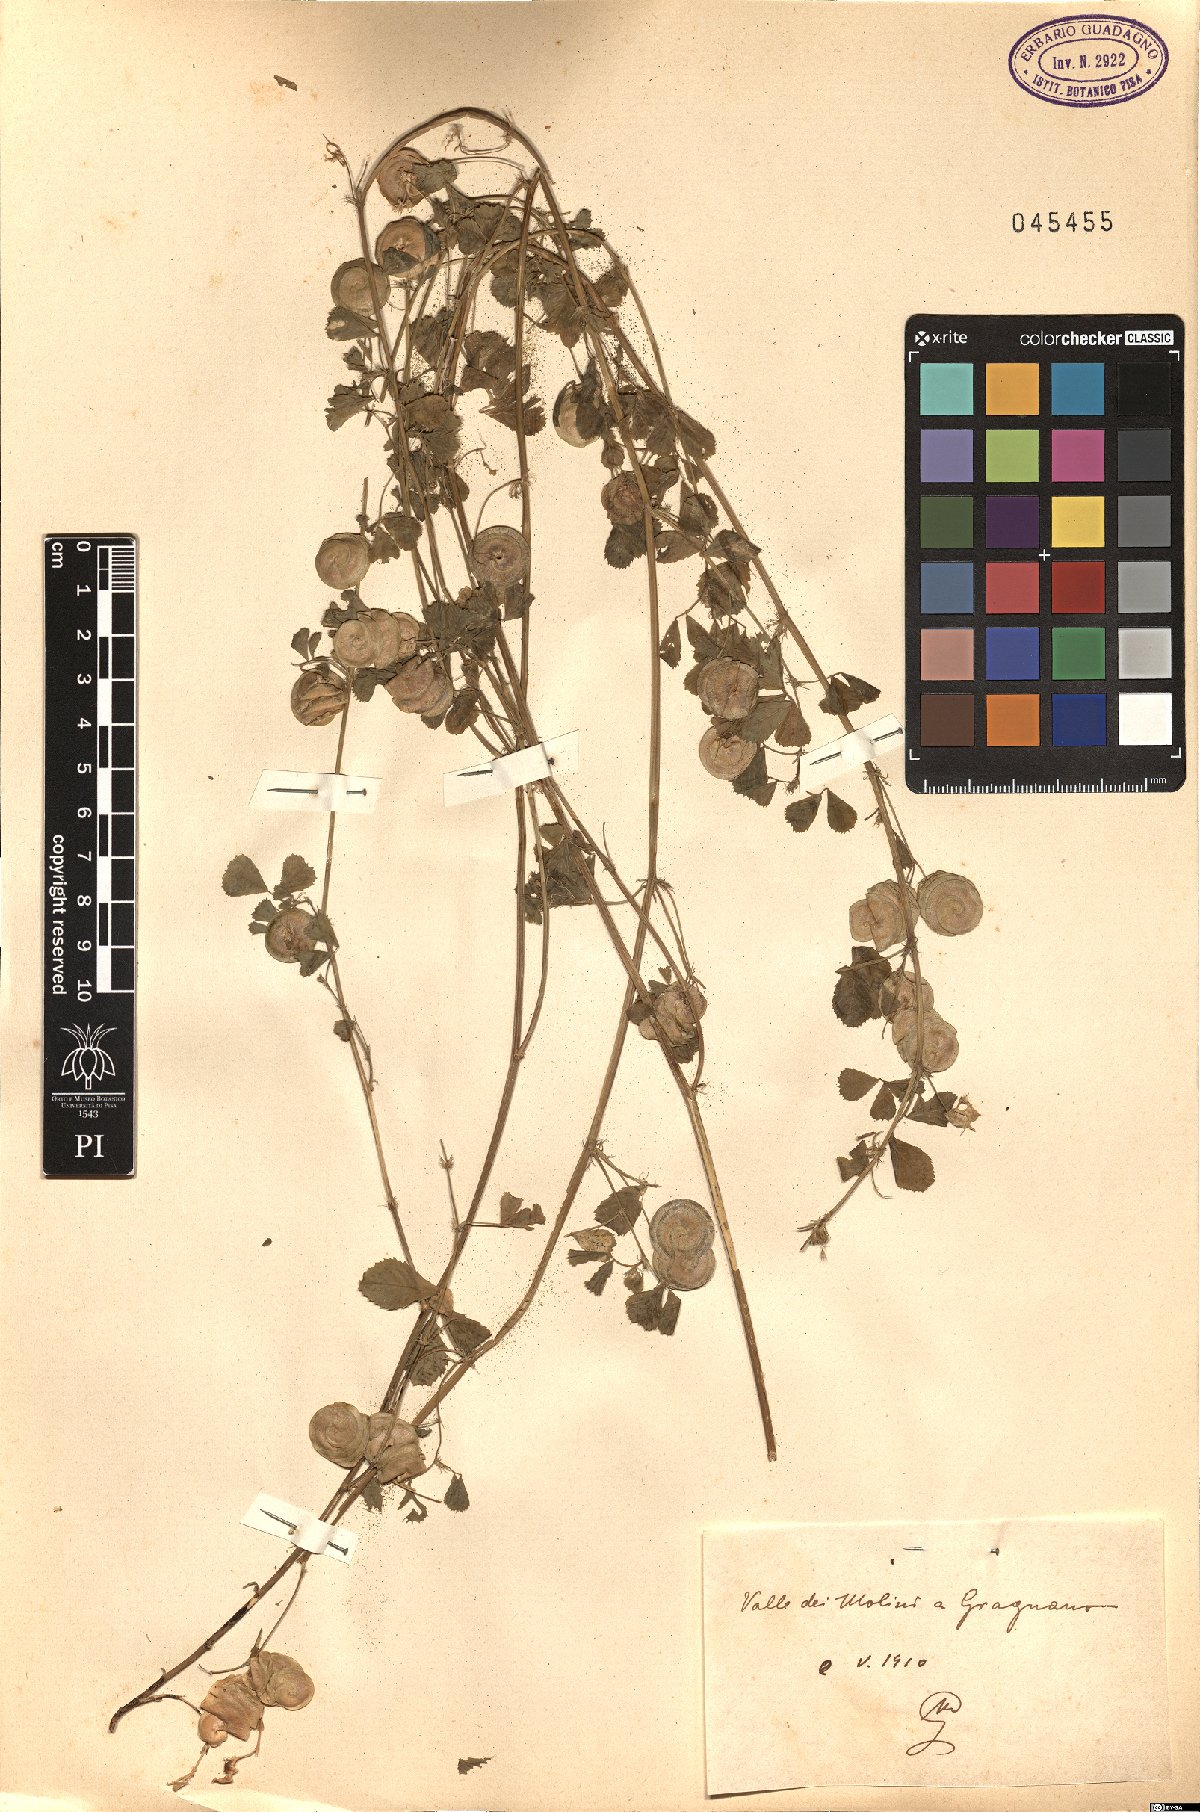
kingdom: Plantae
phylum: Tracheophyta
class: Magnoliopsida
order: Fabales
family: Fabaceae
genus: Medicago
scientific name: Medicago
